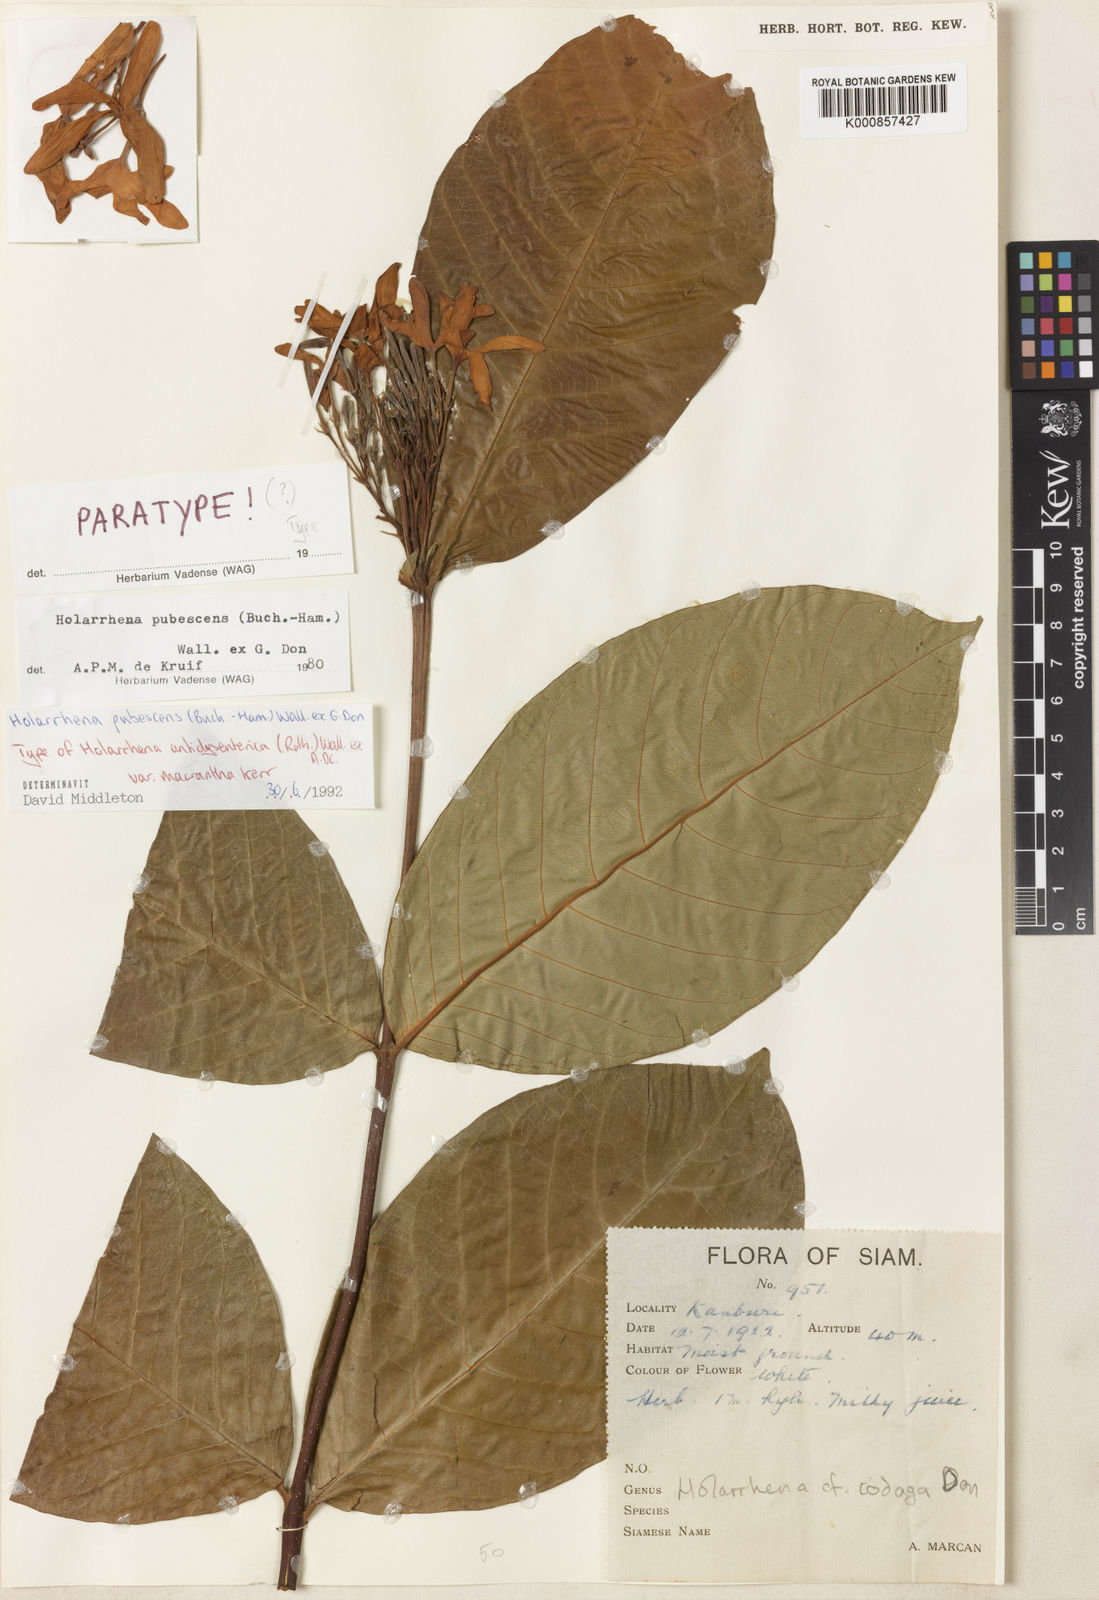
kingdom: Plantae
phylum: Tracheophyta
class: Magnoliopsida
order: Gentianales
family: Apocynaceae
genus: Holarrhena
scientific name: Holarrhena pubescens
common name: Bitter oleander
